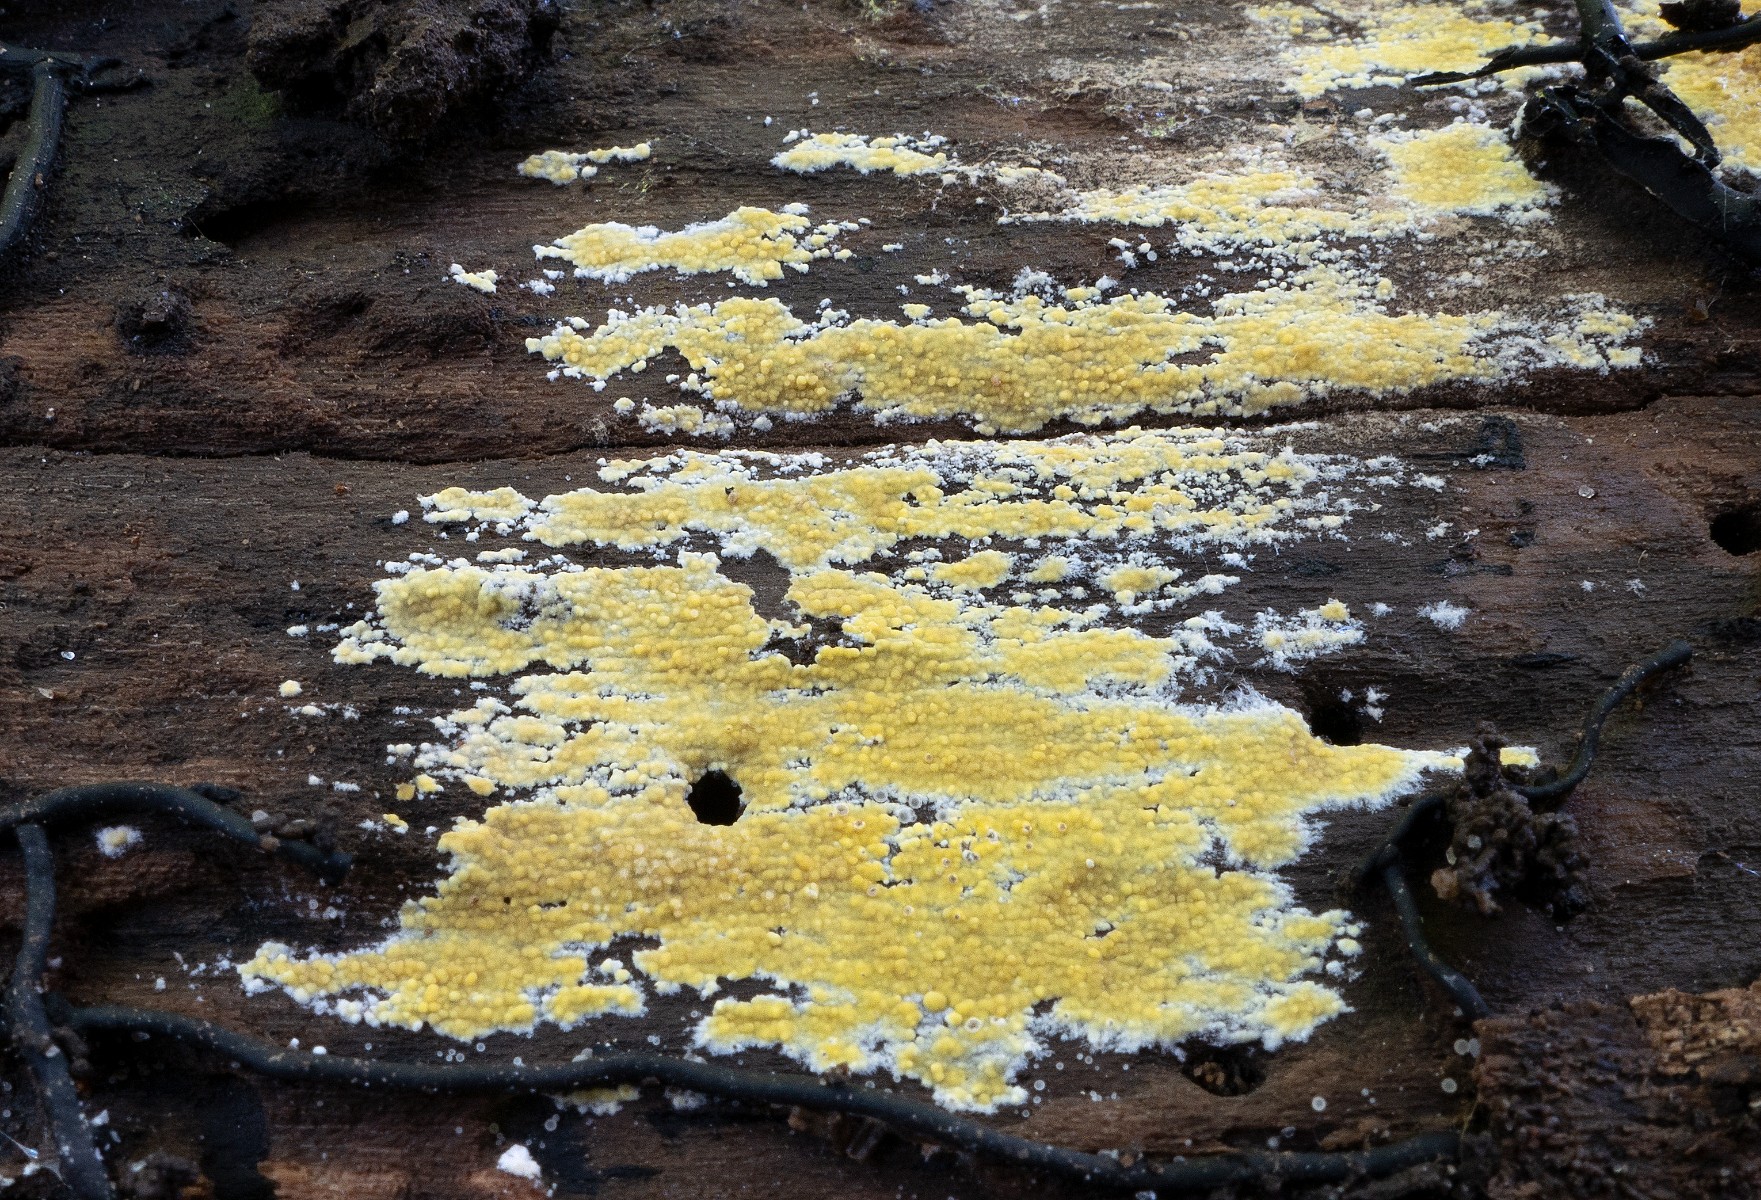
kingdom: Fungi
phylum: Basidiomycota
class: Agaricomycetes
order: Polyporales
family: Meruliaceae
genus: Phlebiodontia
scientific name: Phlebiodontia subochracea
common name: svovl-åresvamp
